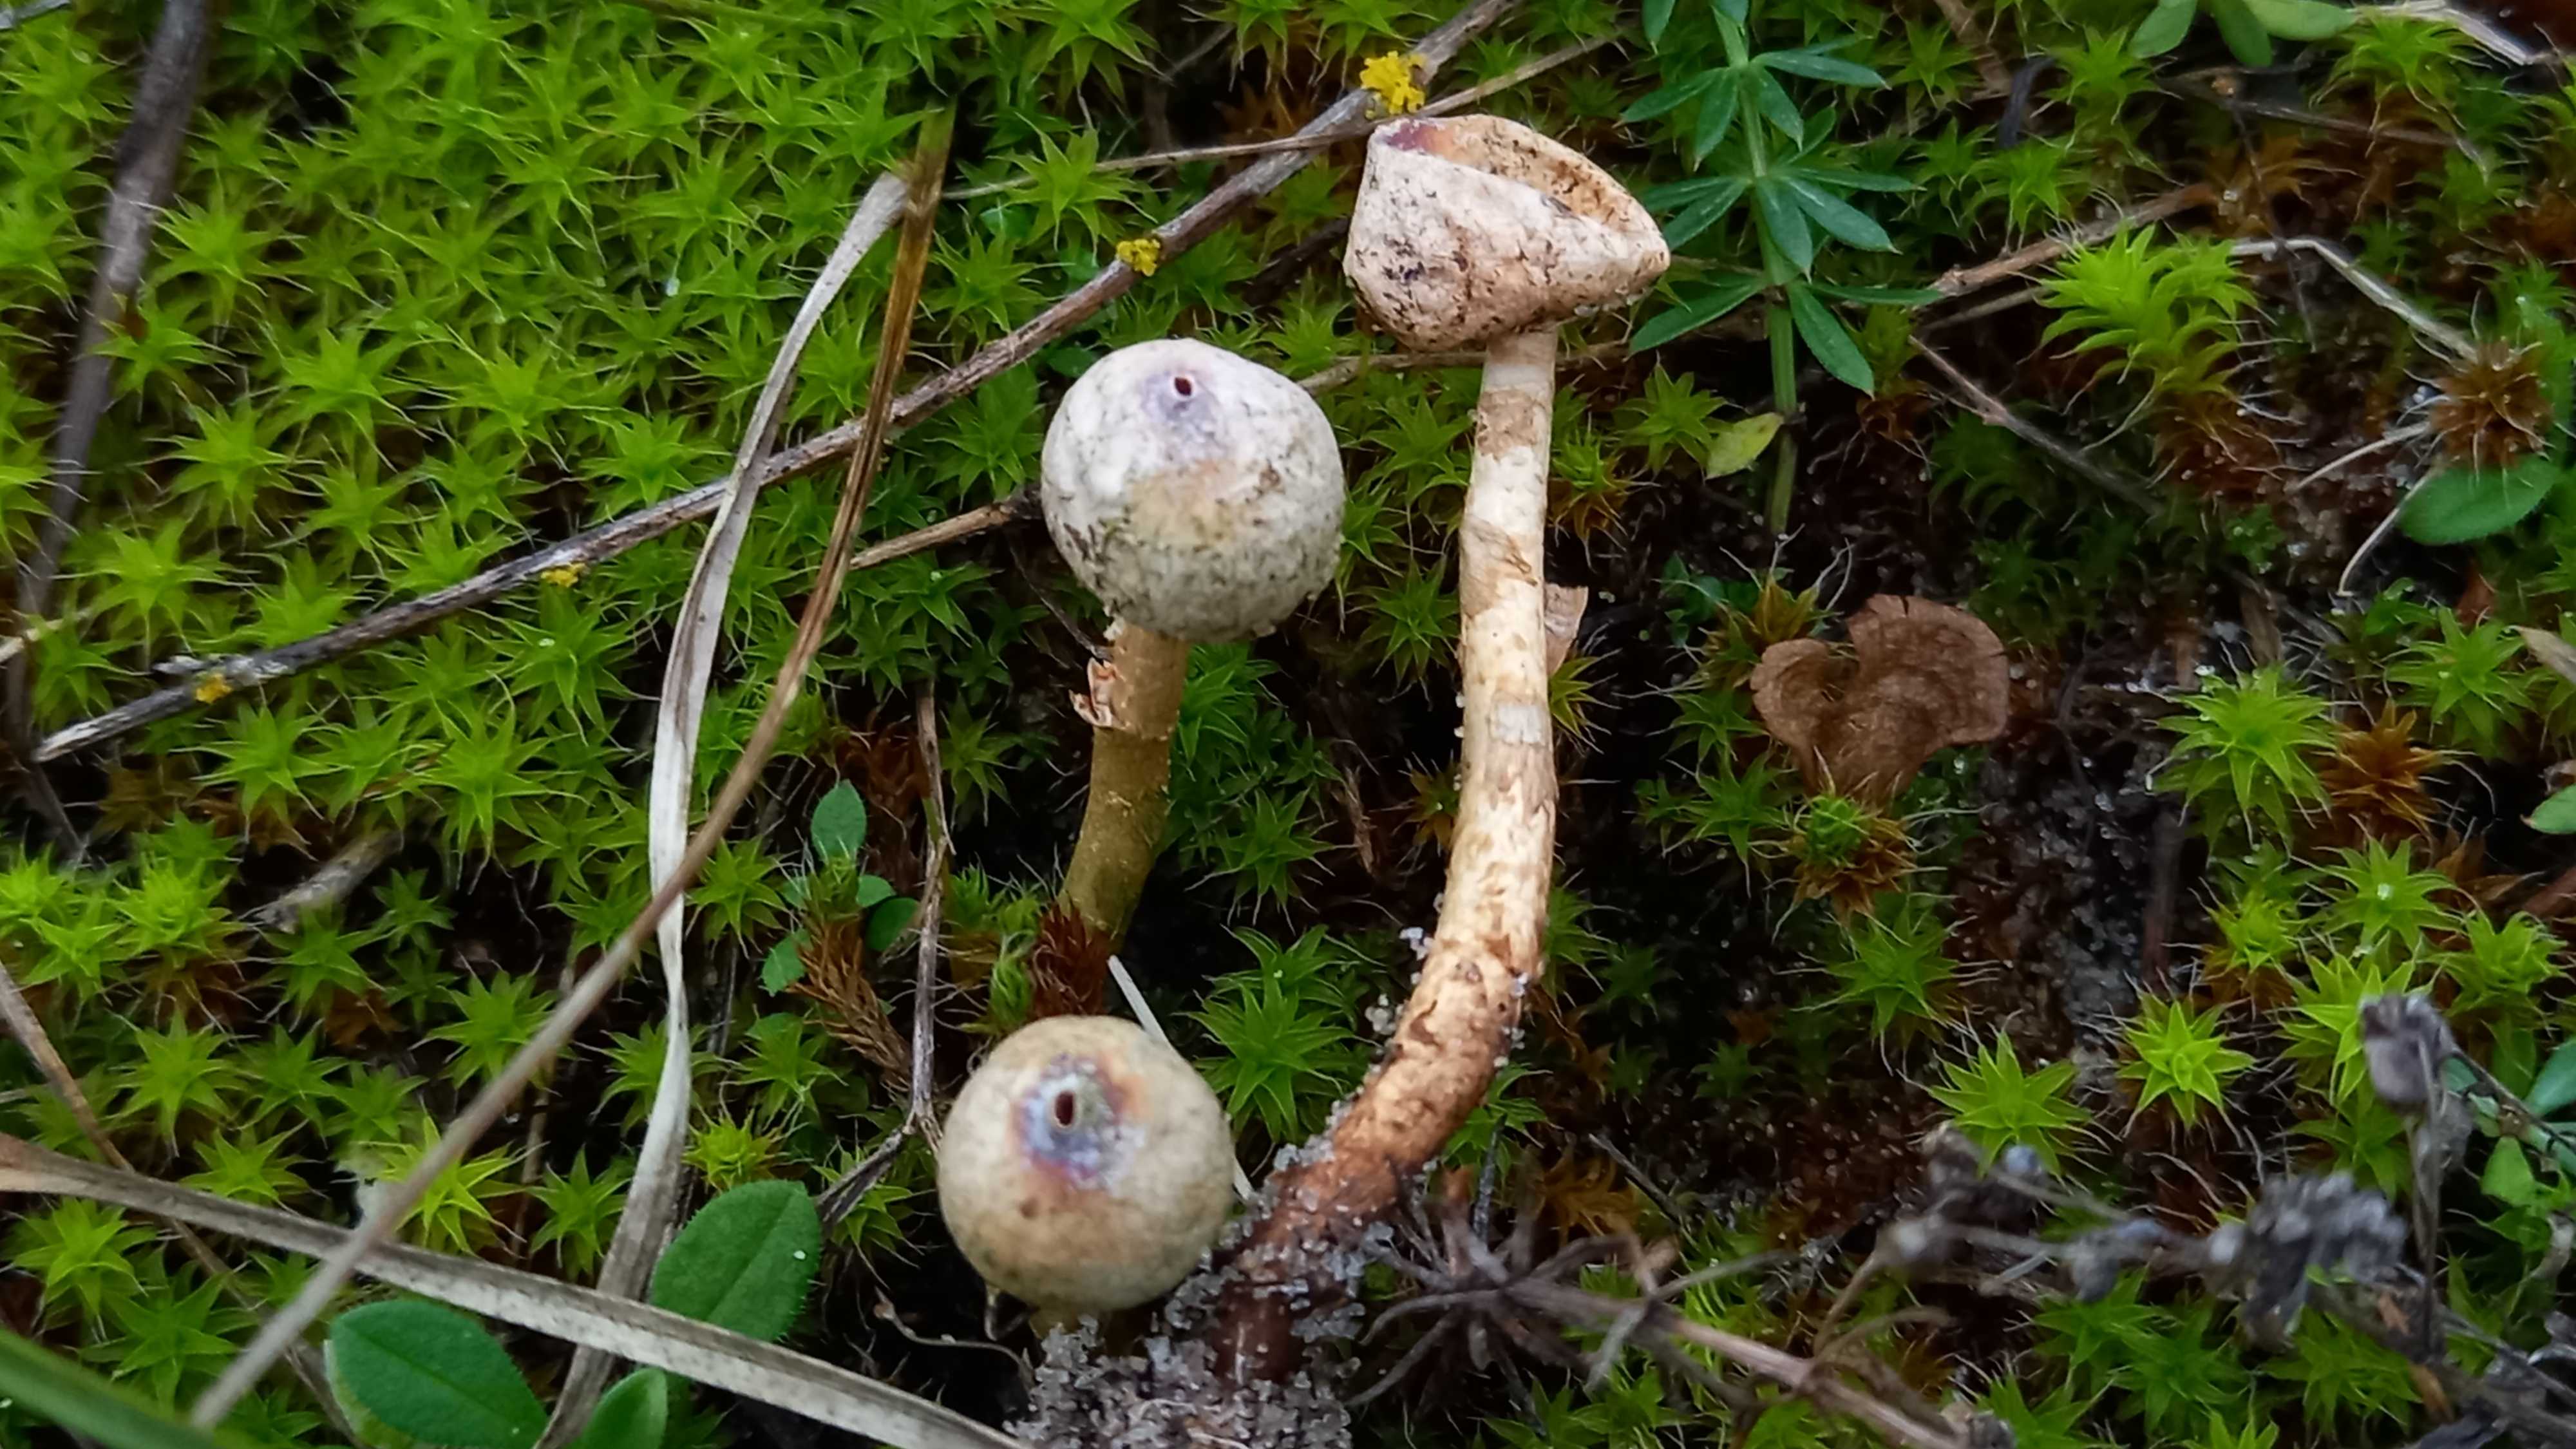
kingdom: Fungi
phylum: Basidiomycota
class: Agaricomycetes
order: Agaricales
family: Agaricaceae
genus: Tulostoma
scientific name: Tulostoma brumale
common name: vinter-stilkbovist
